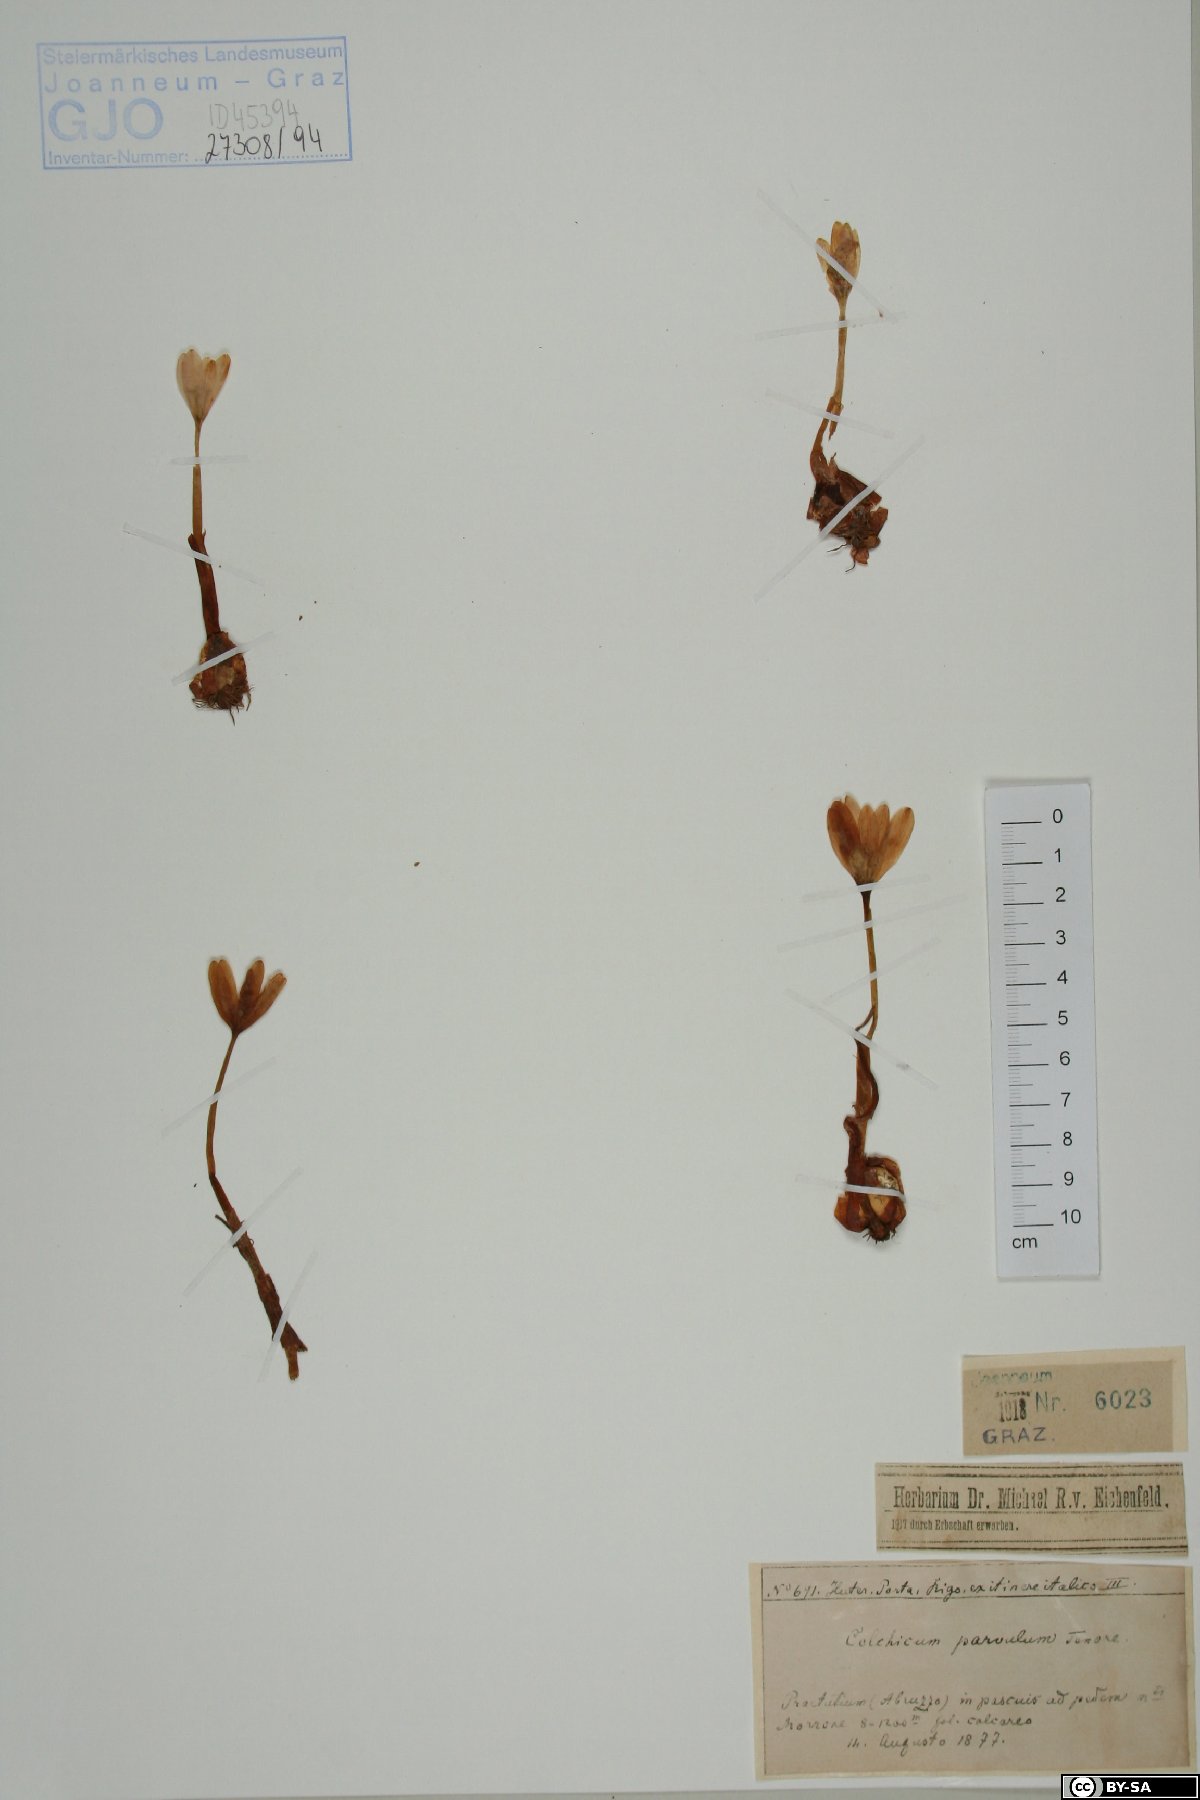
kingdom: Plantae
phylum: Tracheophyta
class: Liliopsida
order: Liliales
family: Colchicaceae
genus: Colchicum
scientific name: Colchicum alpinum
